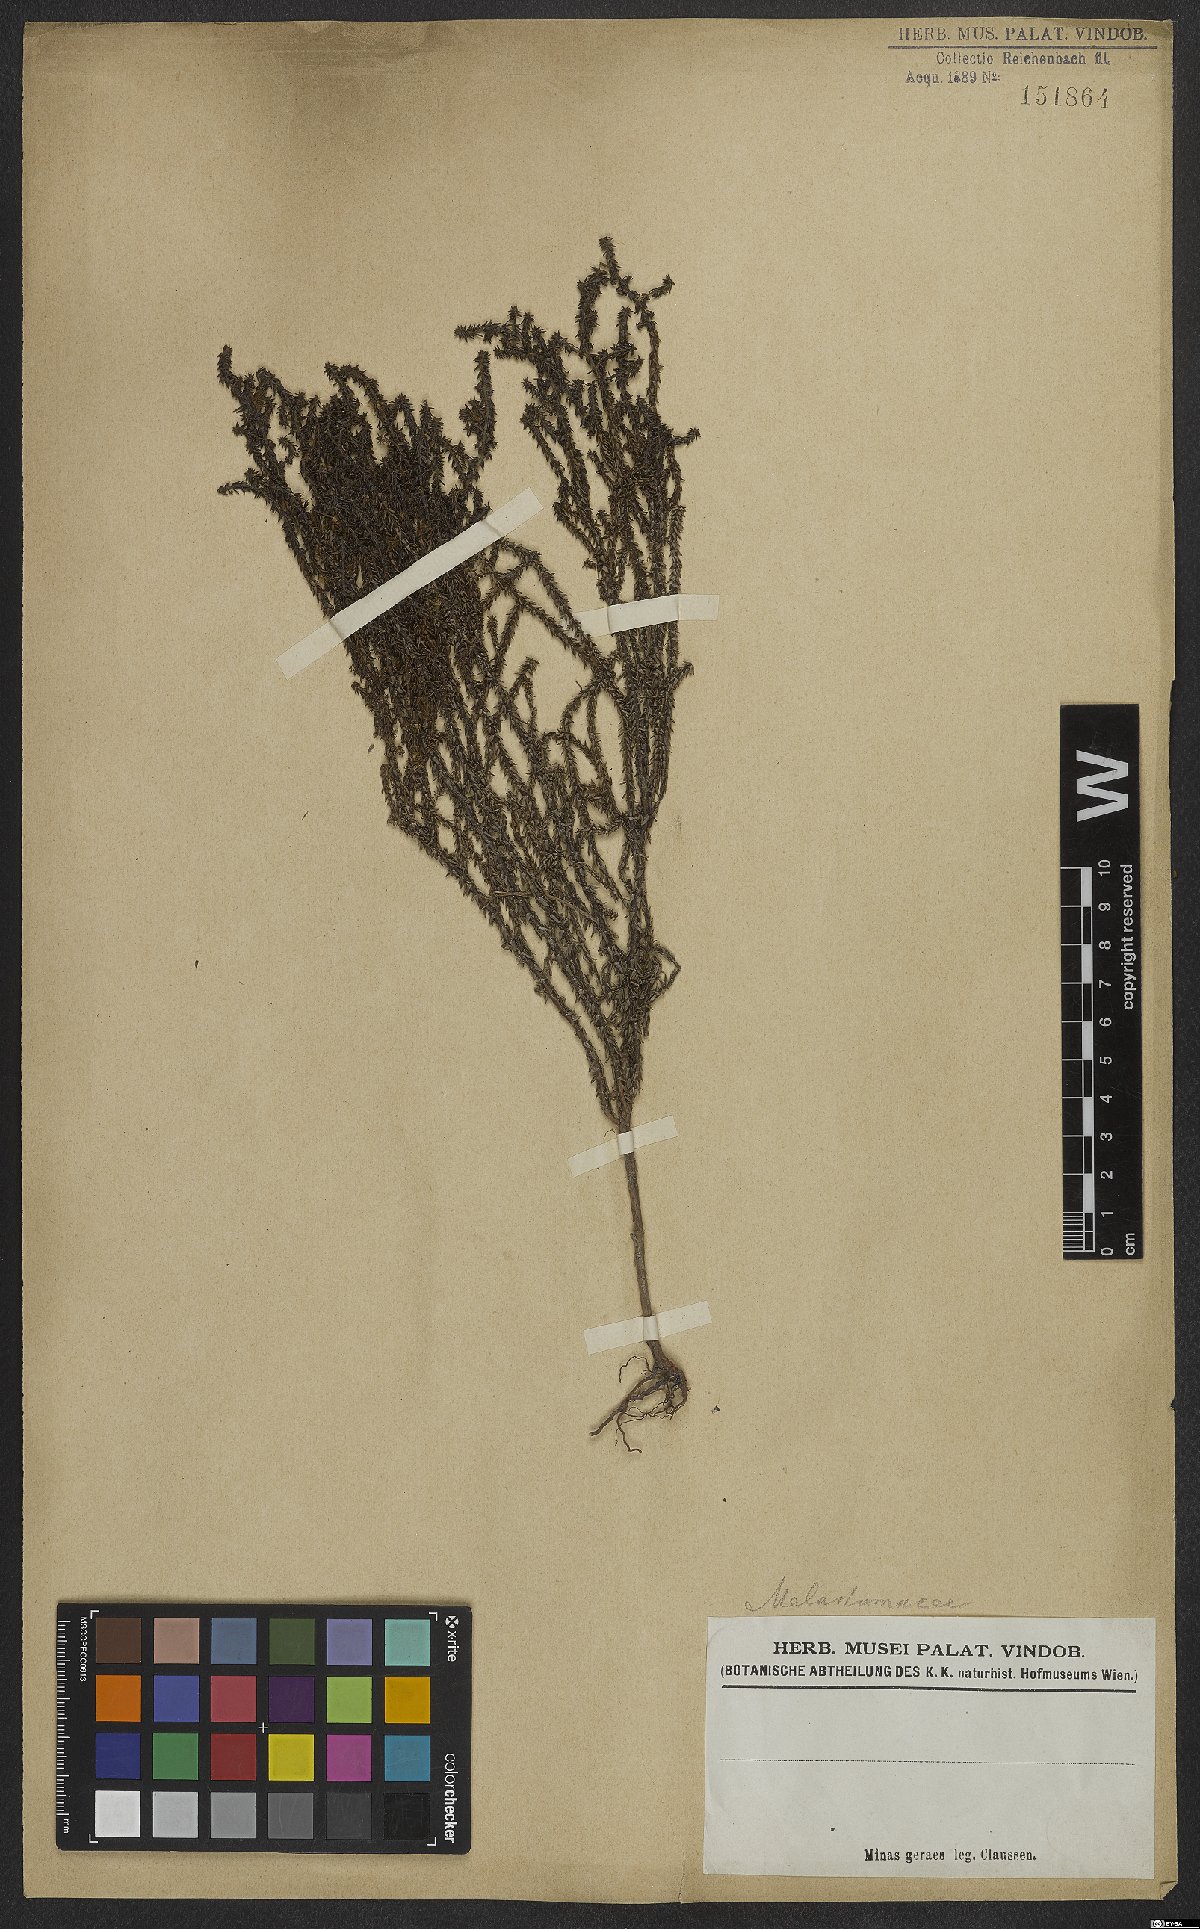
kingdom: Plantae
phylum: Tracheophyta
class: Magnoliopsida
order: Myrtales
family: Melastomataceae
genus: Fritzschia
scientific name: Fritzschia sertularia
